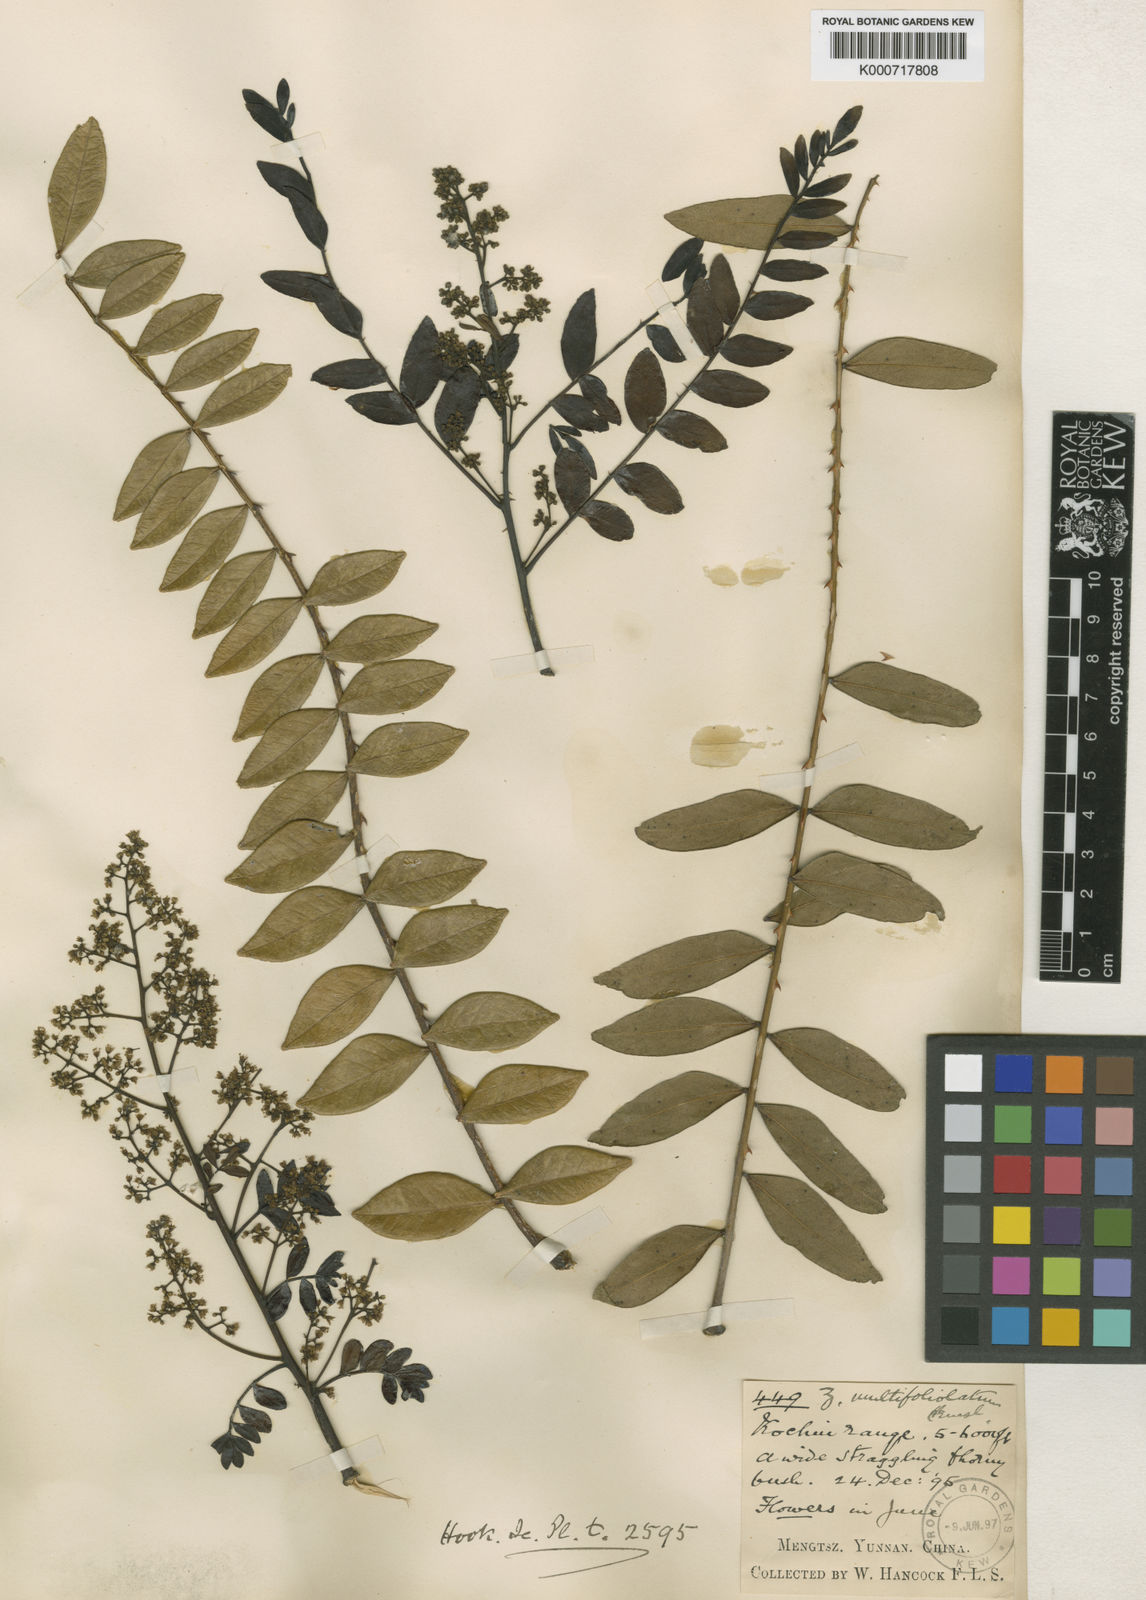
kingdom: Plantae
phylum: Tracheophyta
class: Magnoliopsida
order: Sapindales
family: Rutaceae
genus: Zanthoxylum
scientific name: Zanthoxylum multijugum
